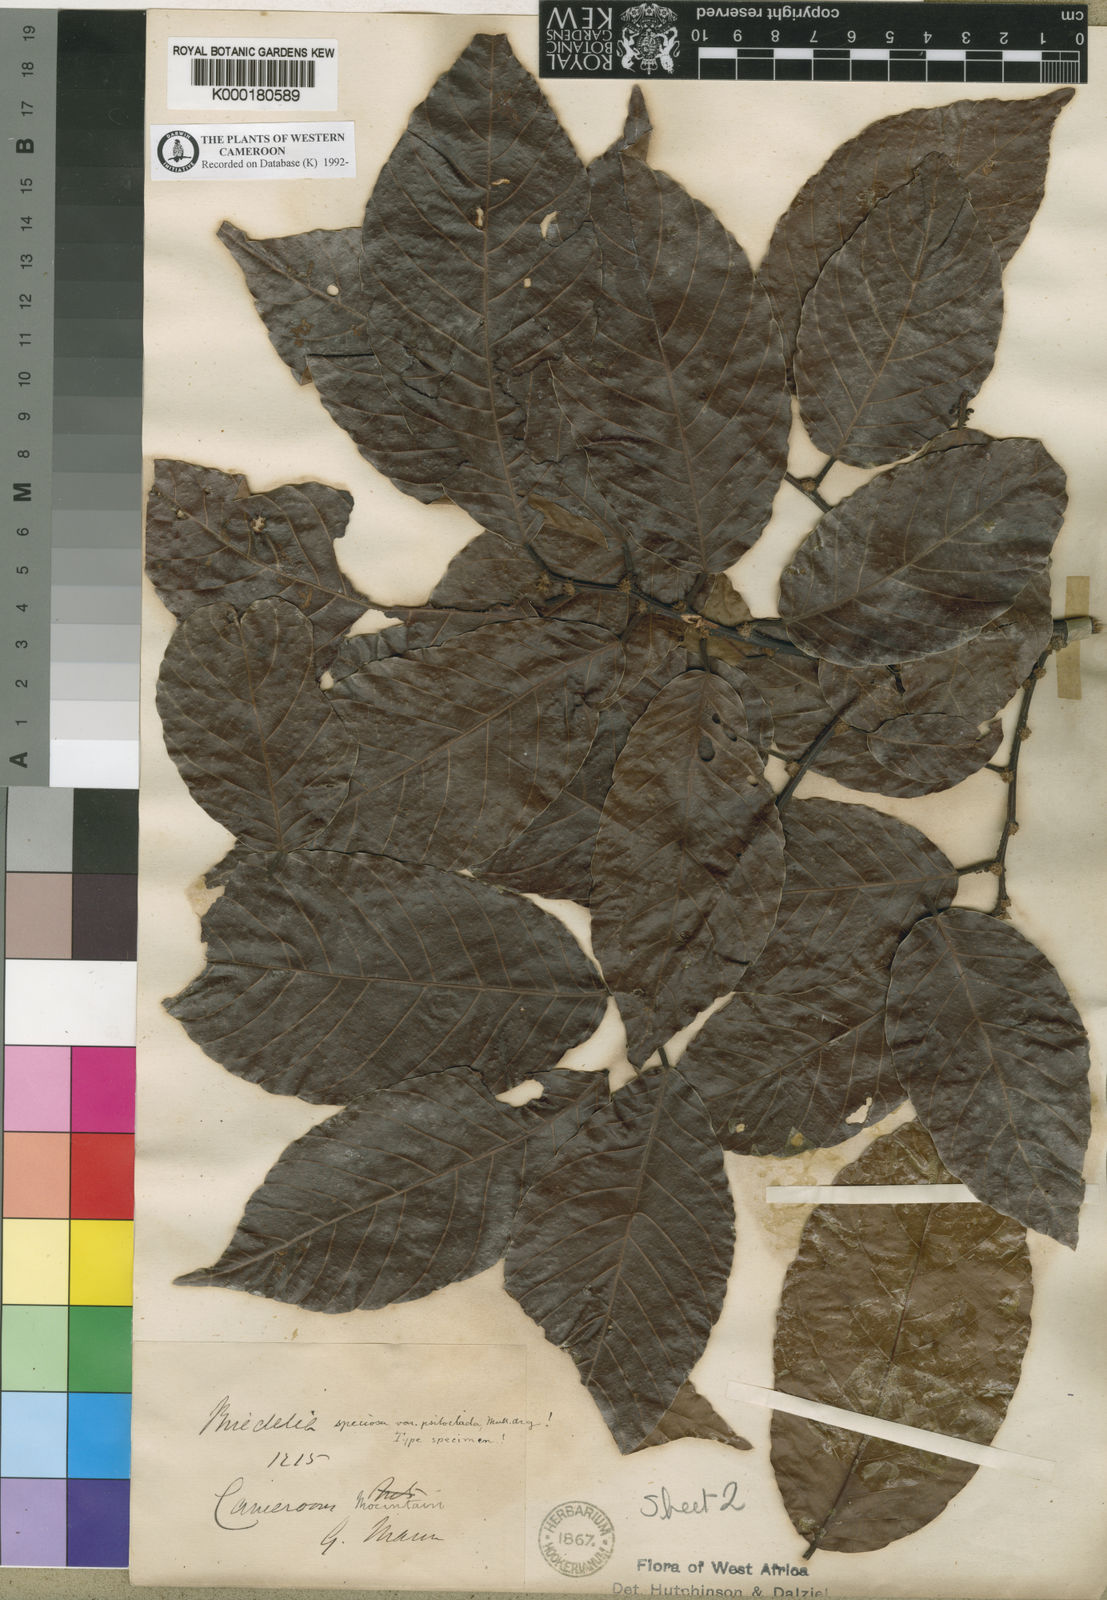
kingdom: Plantae
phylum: Tracheophyta
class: Magnoliopsida
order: Malpighiales
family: Phyllanthaceae
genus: Bridelia
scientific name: Bridelia
